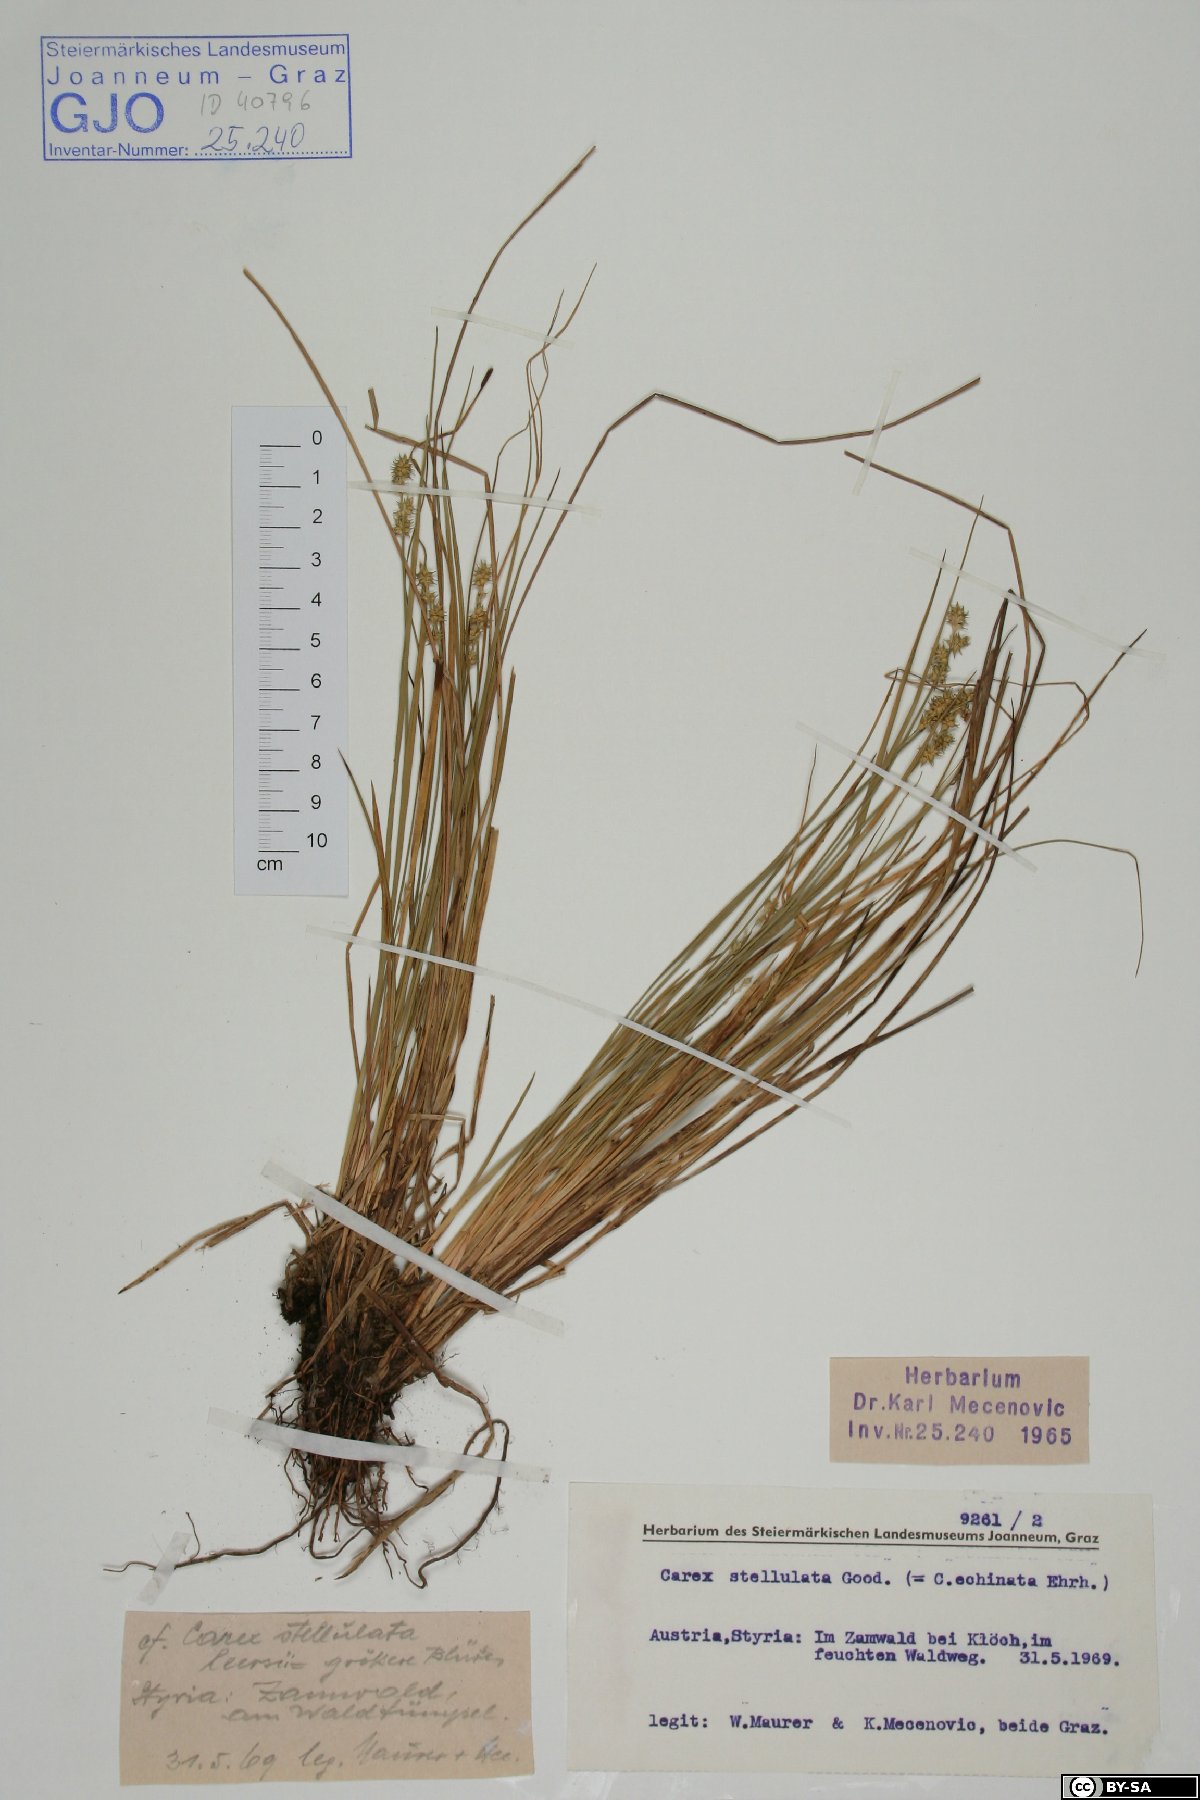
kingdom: Plantae
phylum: Tracheophyta
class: Liliopsida
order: Poales
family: Cyperaceae
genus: Carex
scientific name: Carex echinata
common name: Star sedge
